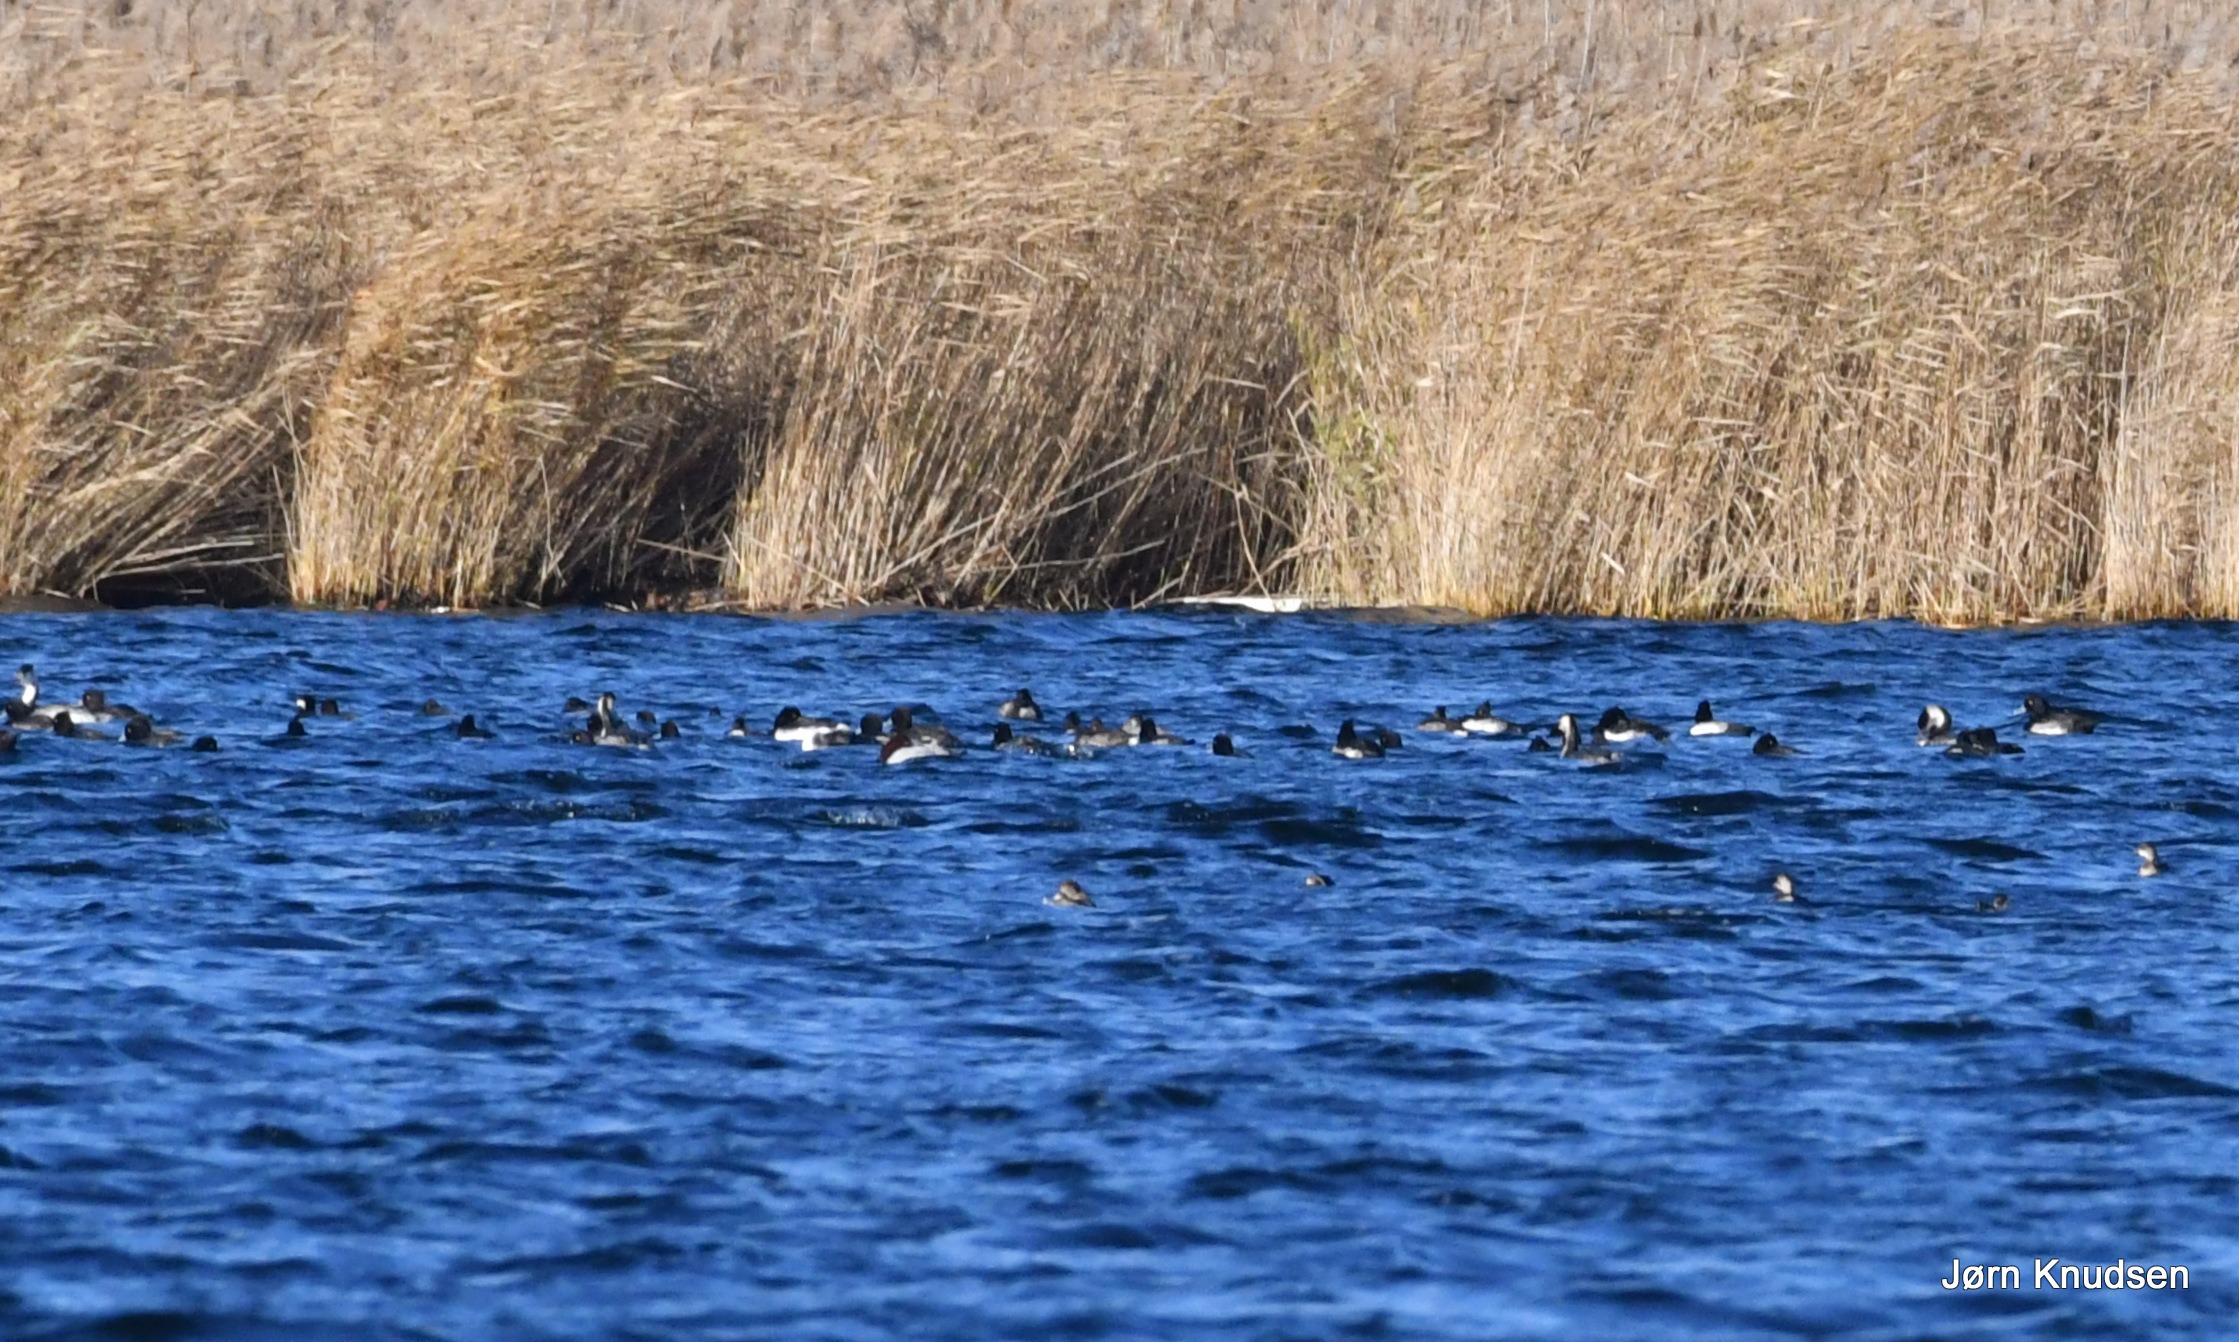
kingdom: Animalia
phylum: Chordata
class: Aves
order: Anseriformes
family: Anatidae
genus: Aythya
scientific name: Aythya fuligula
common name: Troldand
